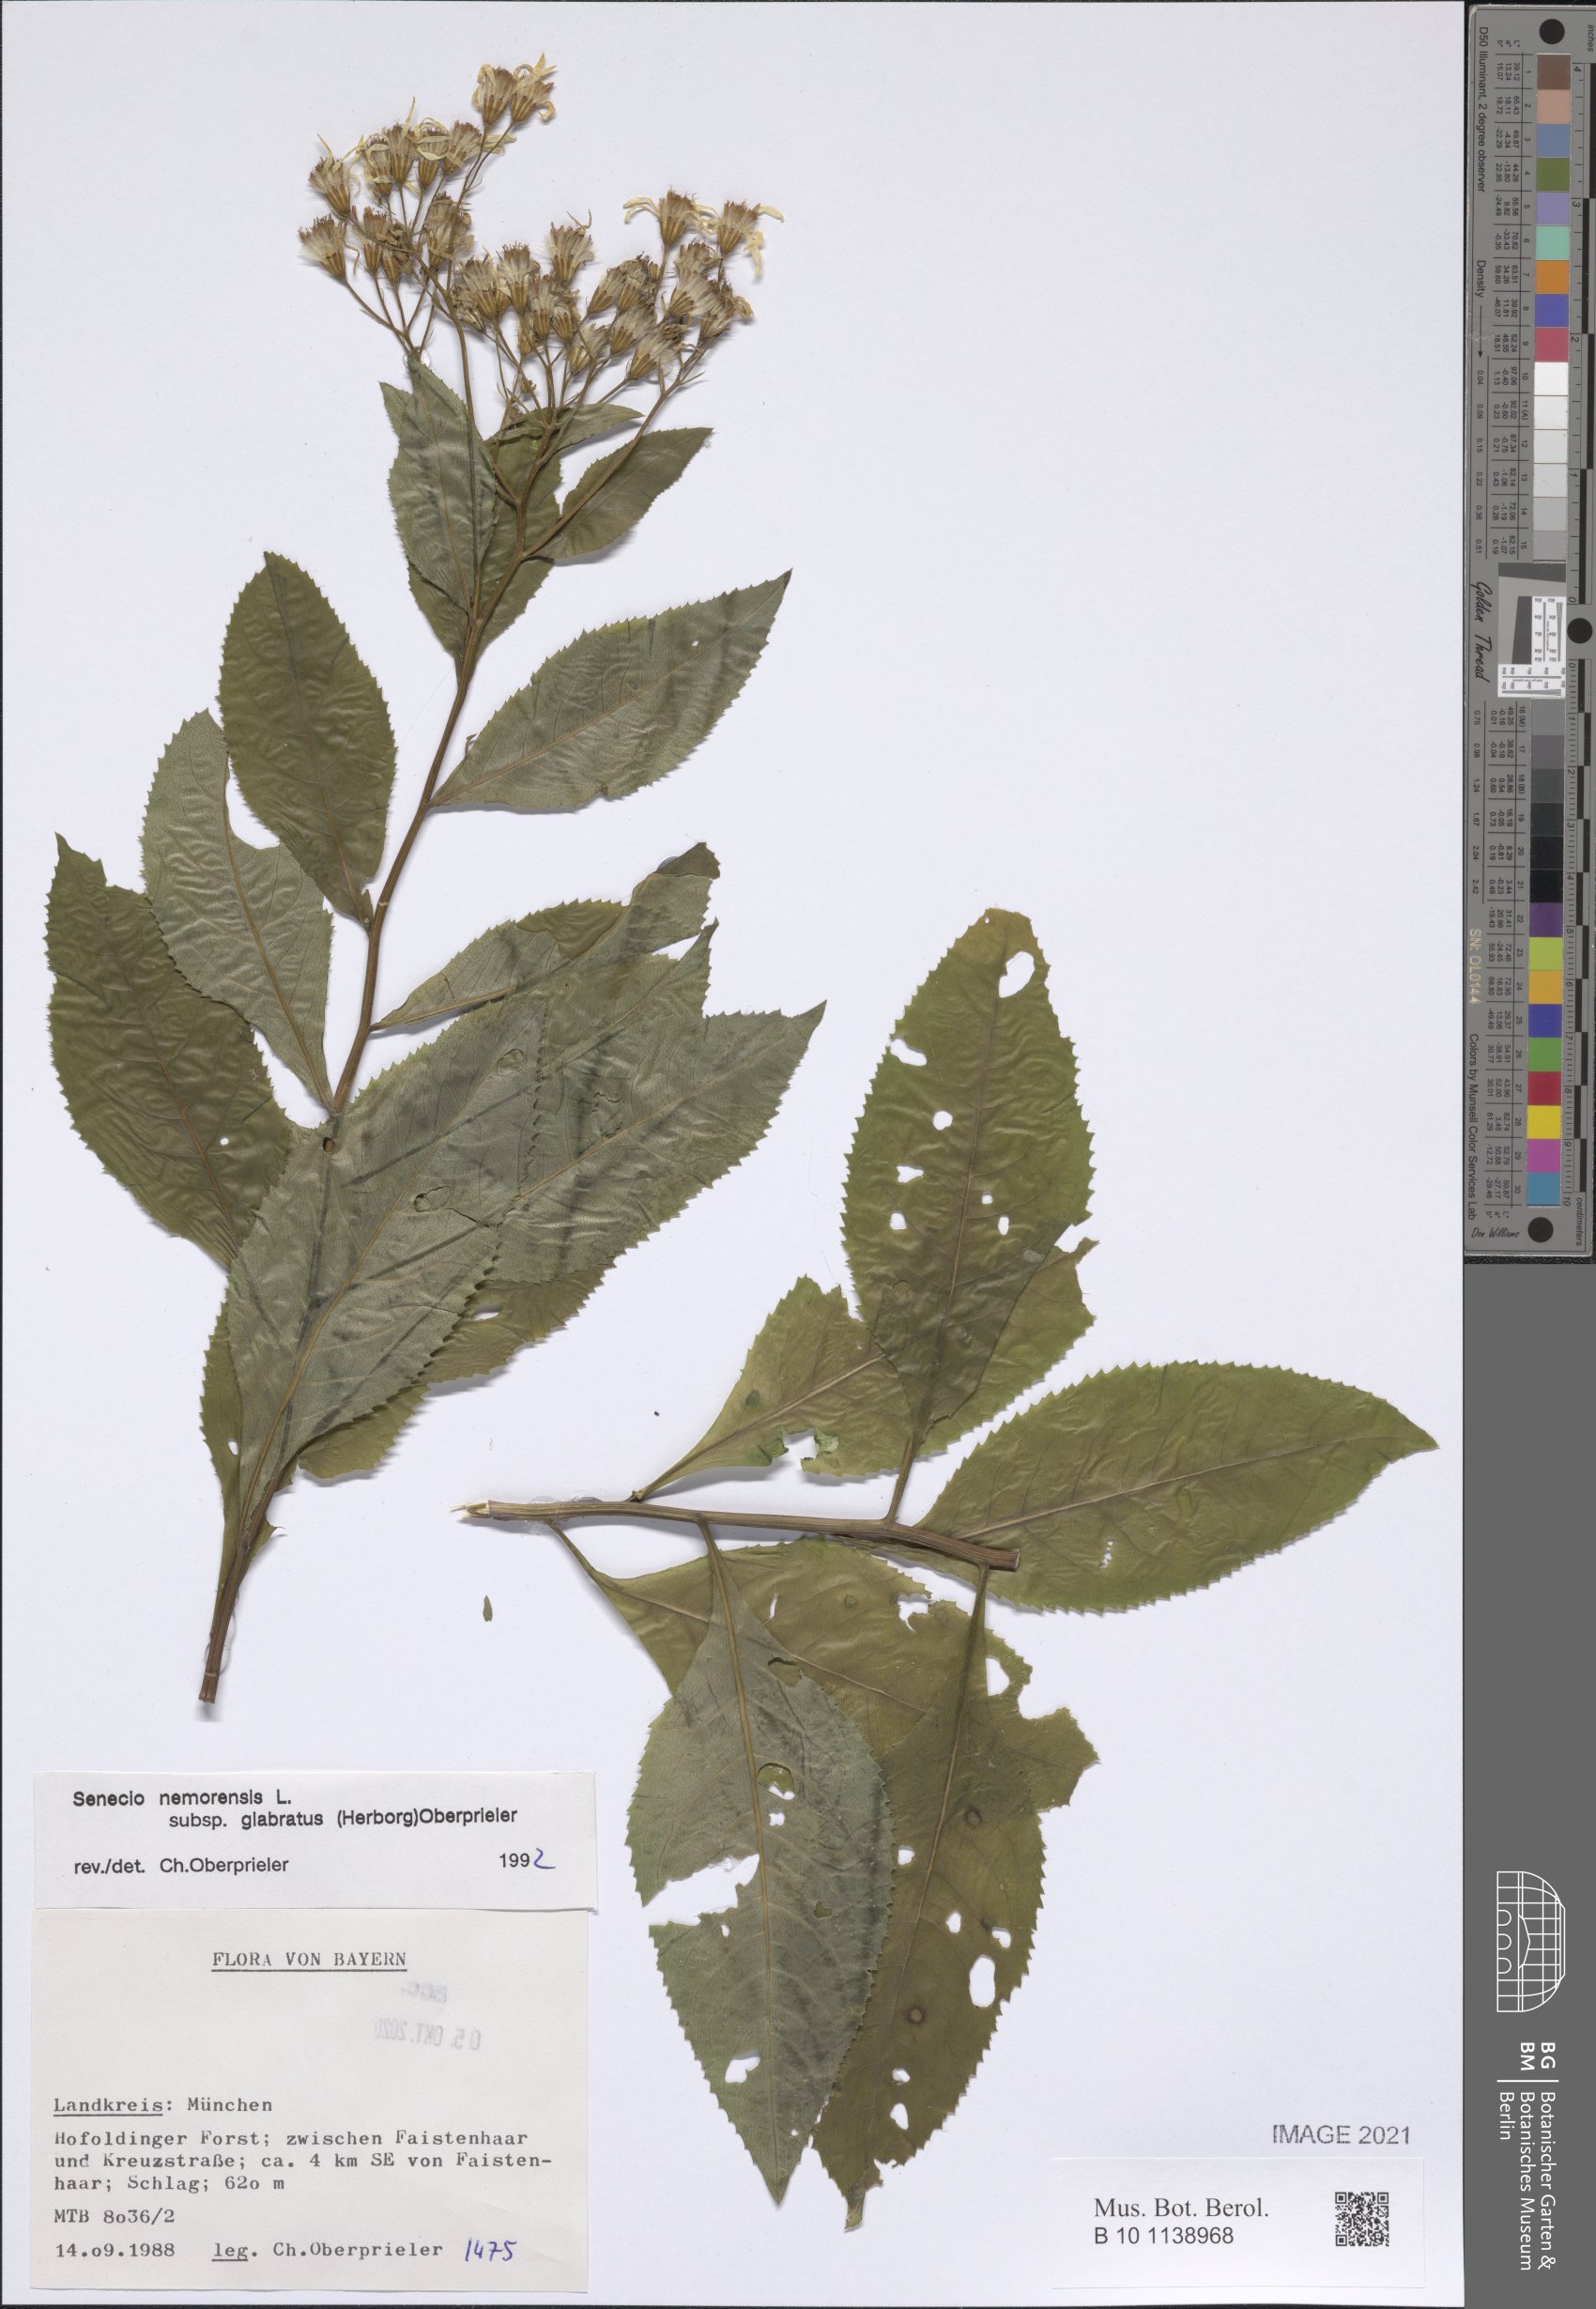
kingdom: Plantae
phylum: Tracheophyta
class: Magnoliopsida
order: Asterales
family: Asteraceae
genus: Senecio
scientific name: Senecio germanicus
